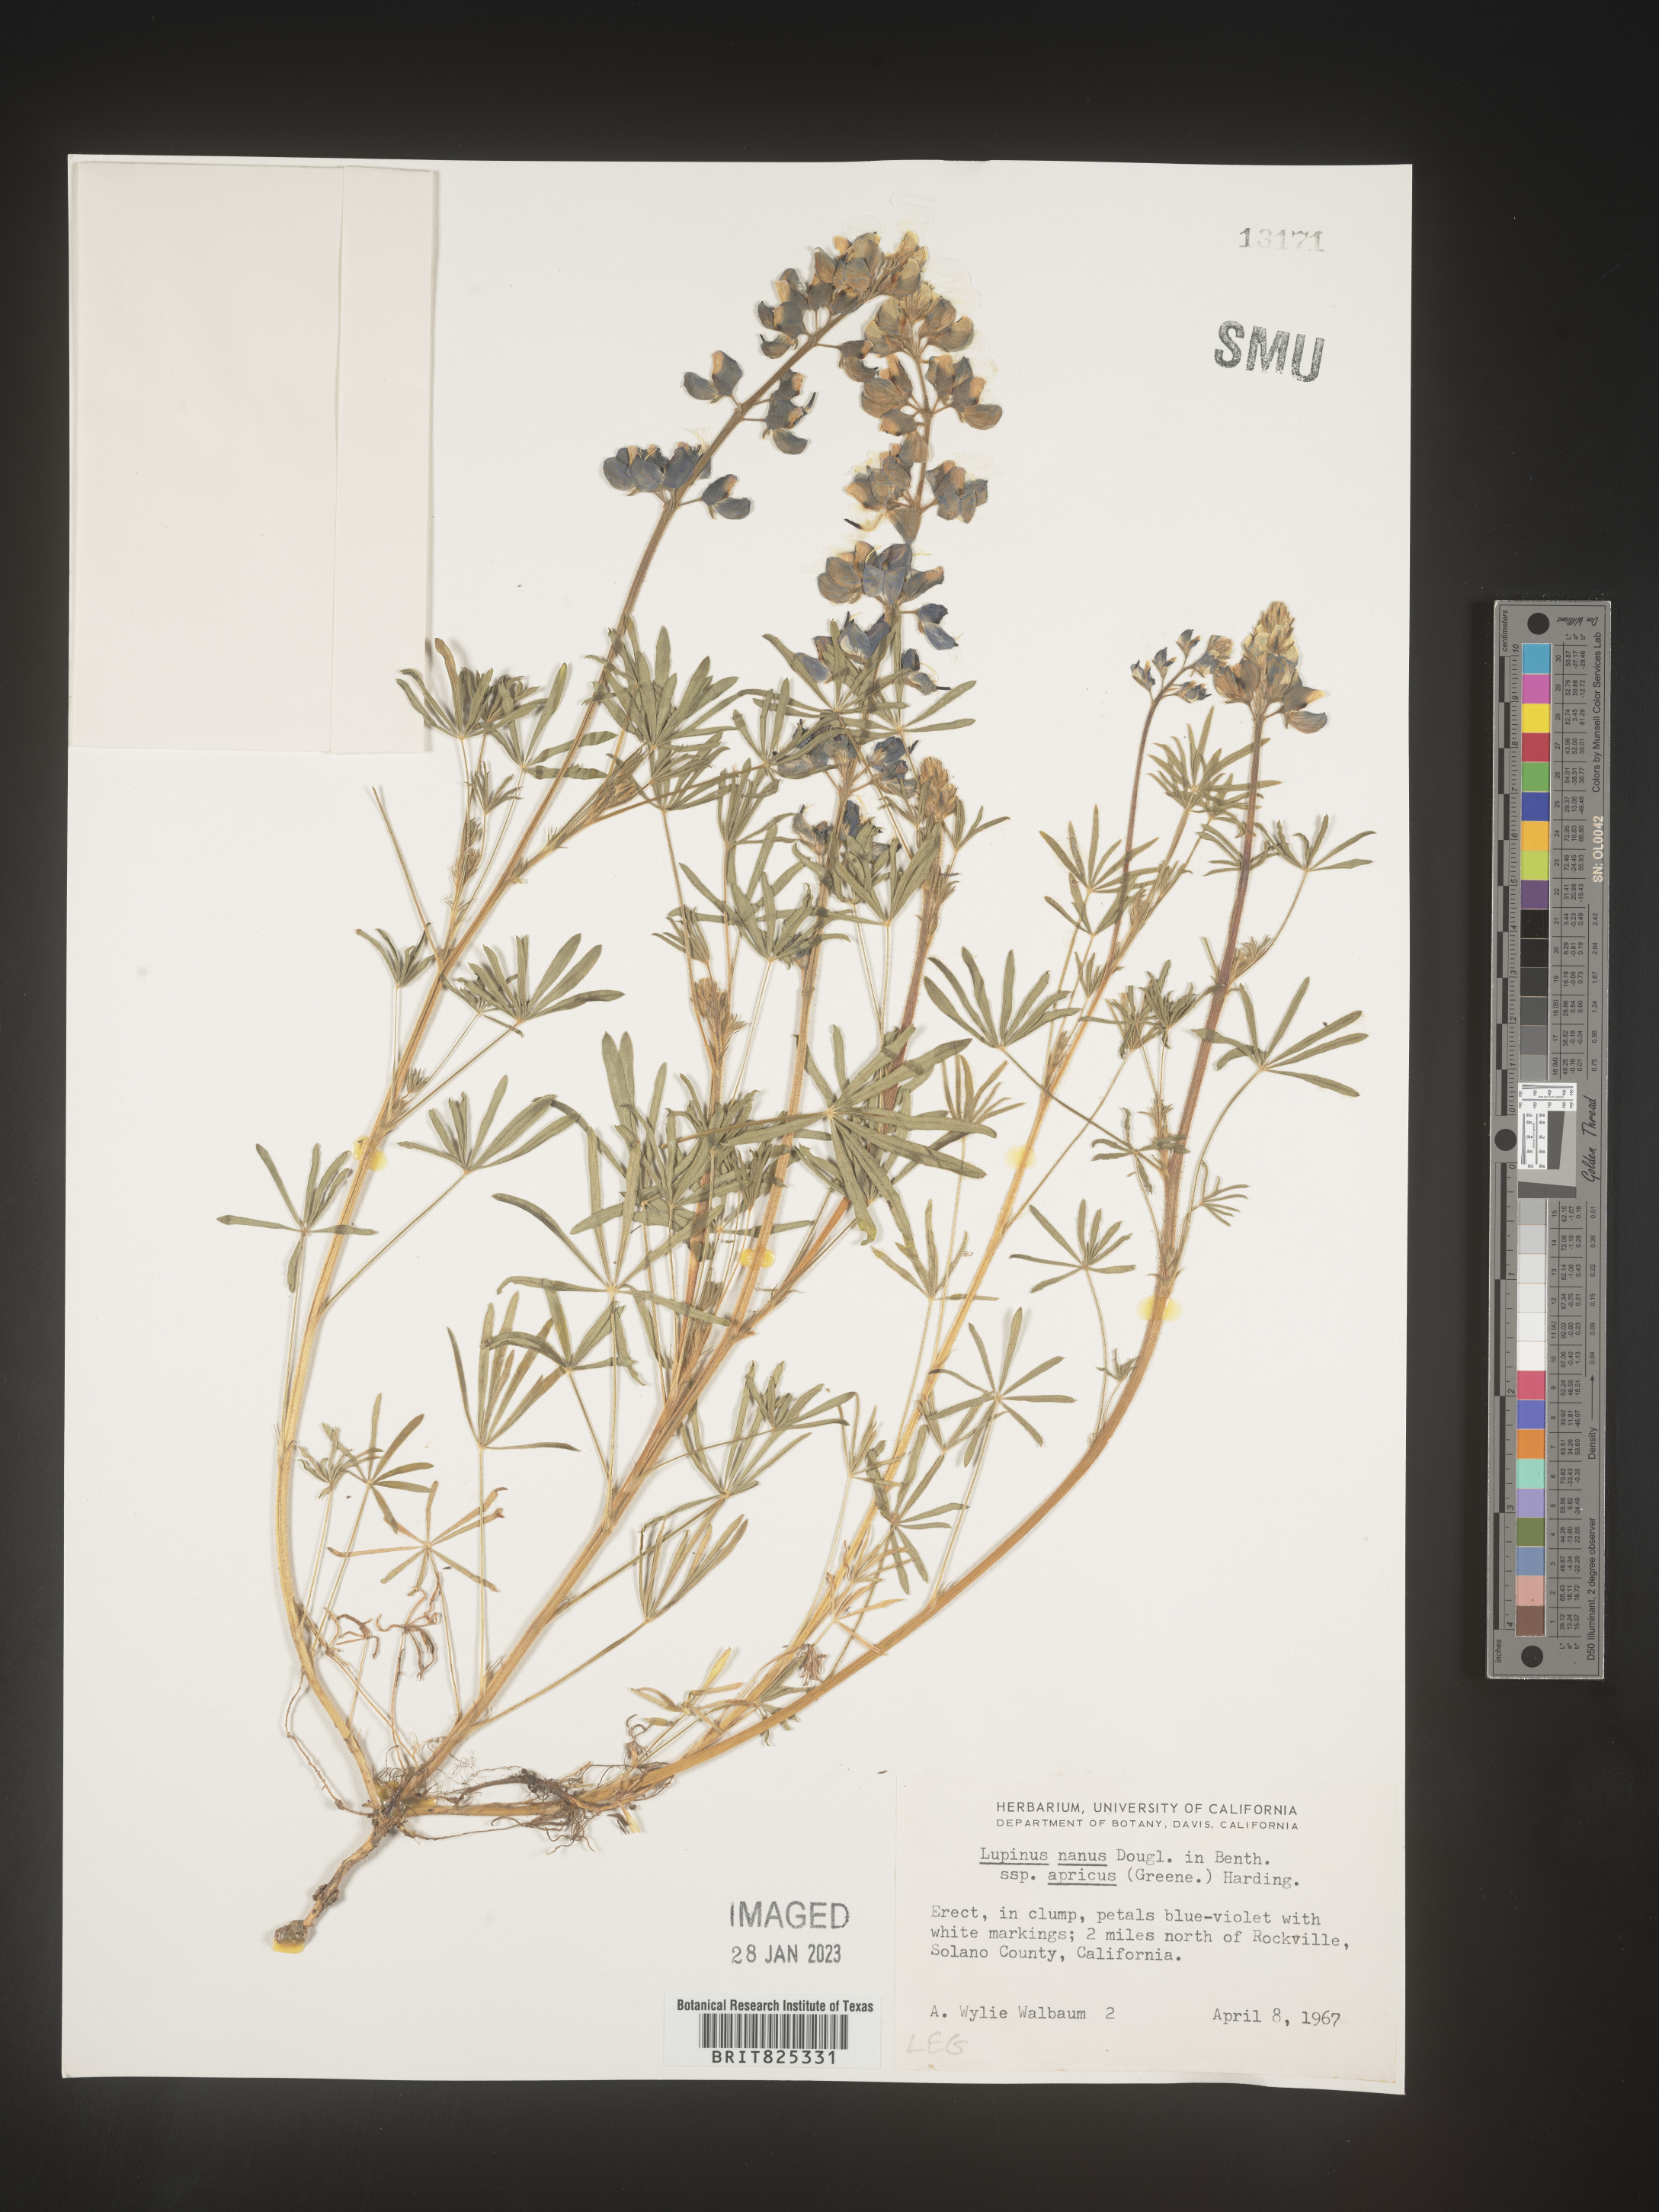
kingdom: Plantae
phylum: Tracheophyta
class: Magnoliopsida
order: Fabales
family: Fabaceae
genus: Lupinus
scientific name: Lupinus nanus
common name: Orean blue lupin
